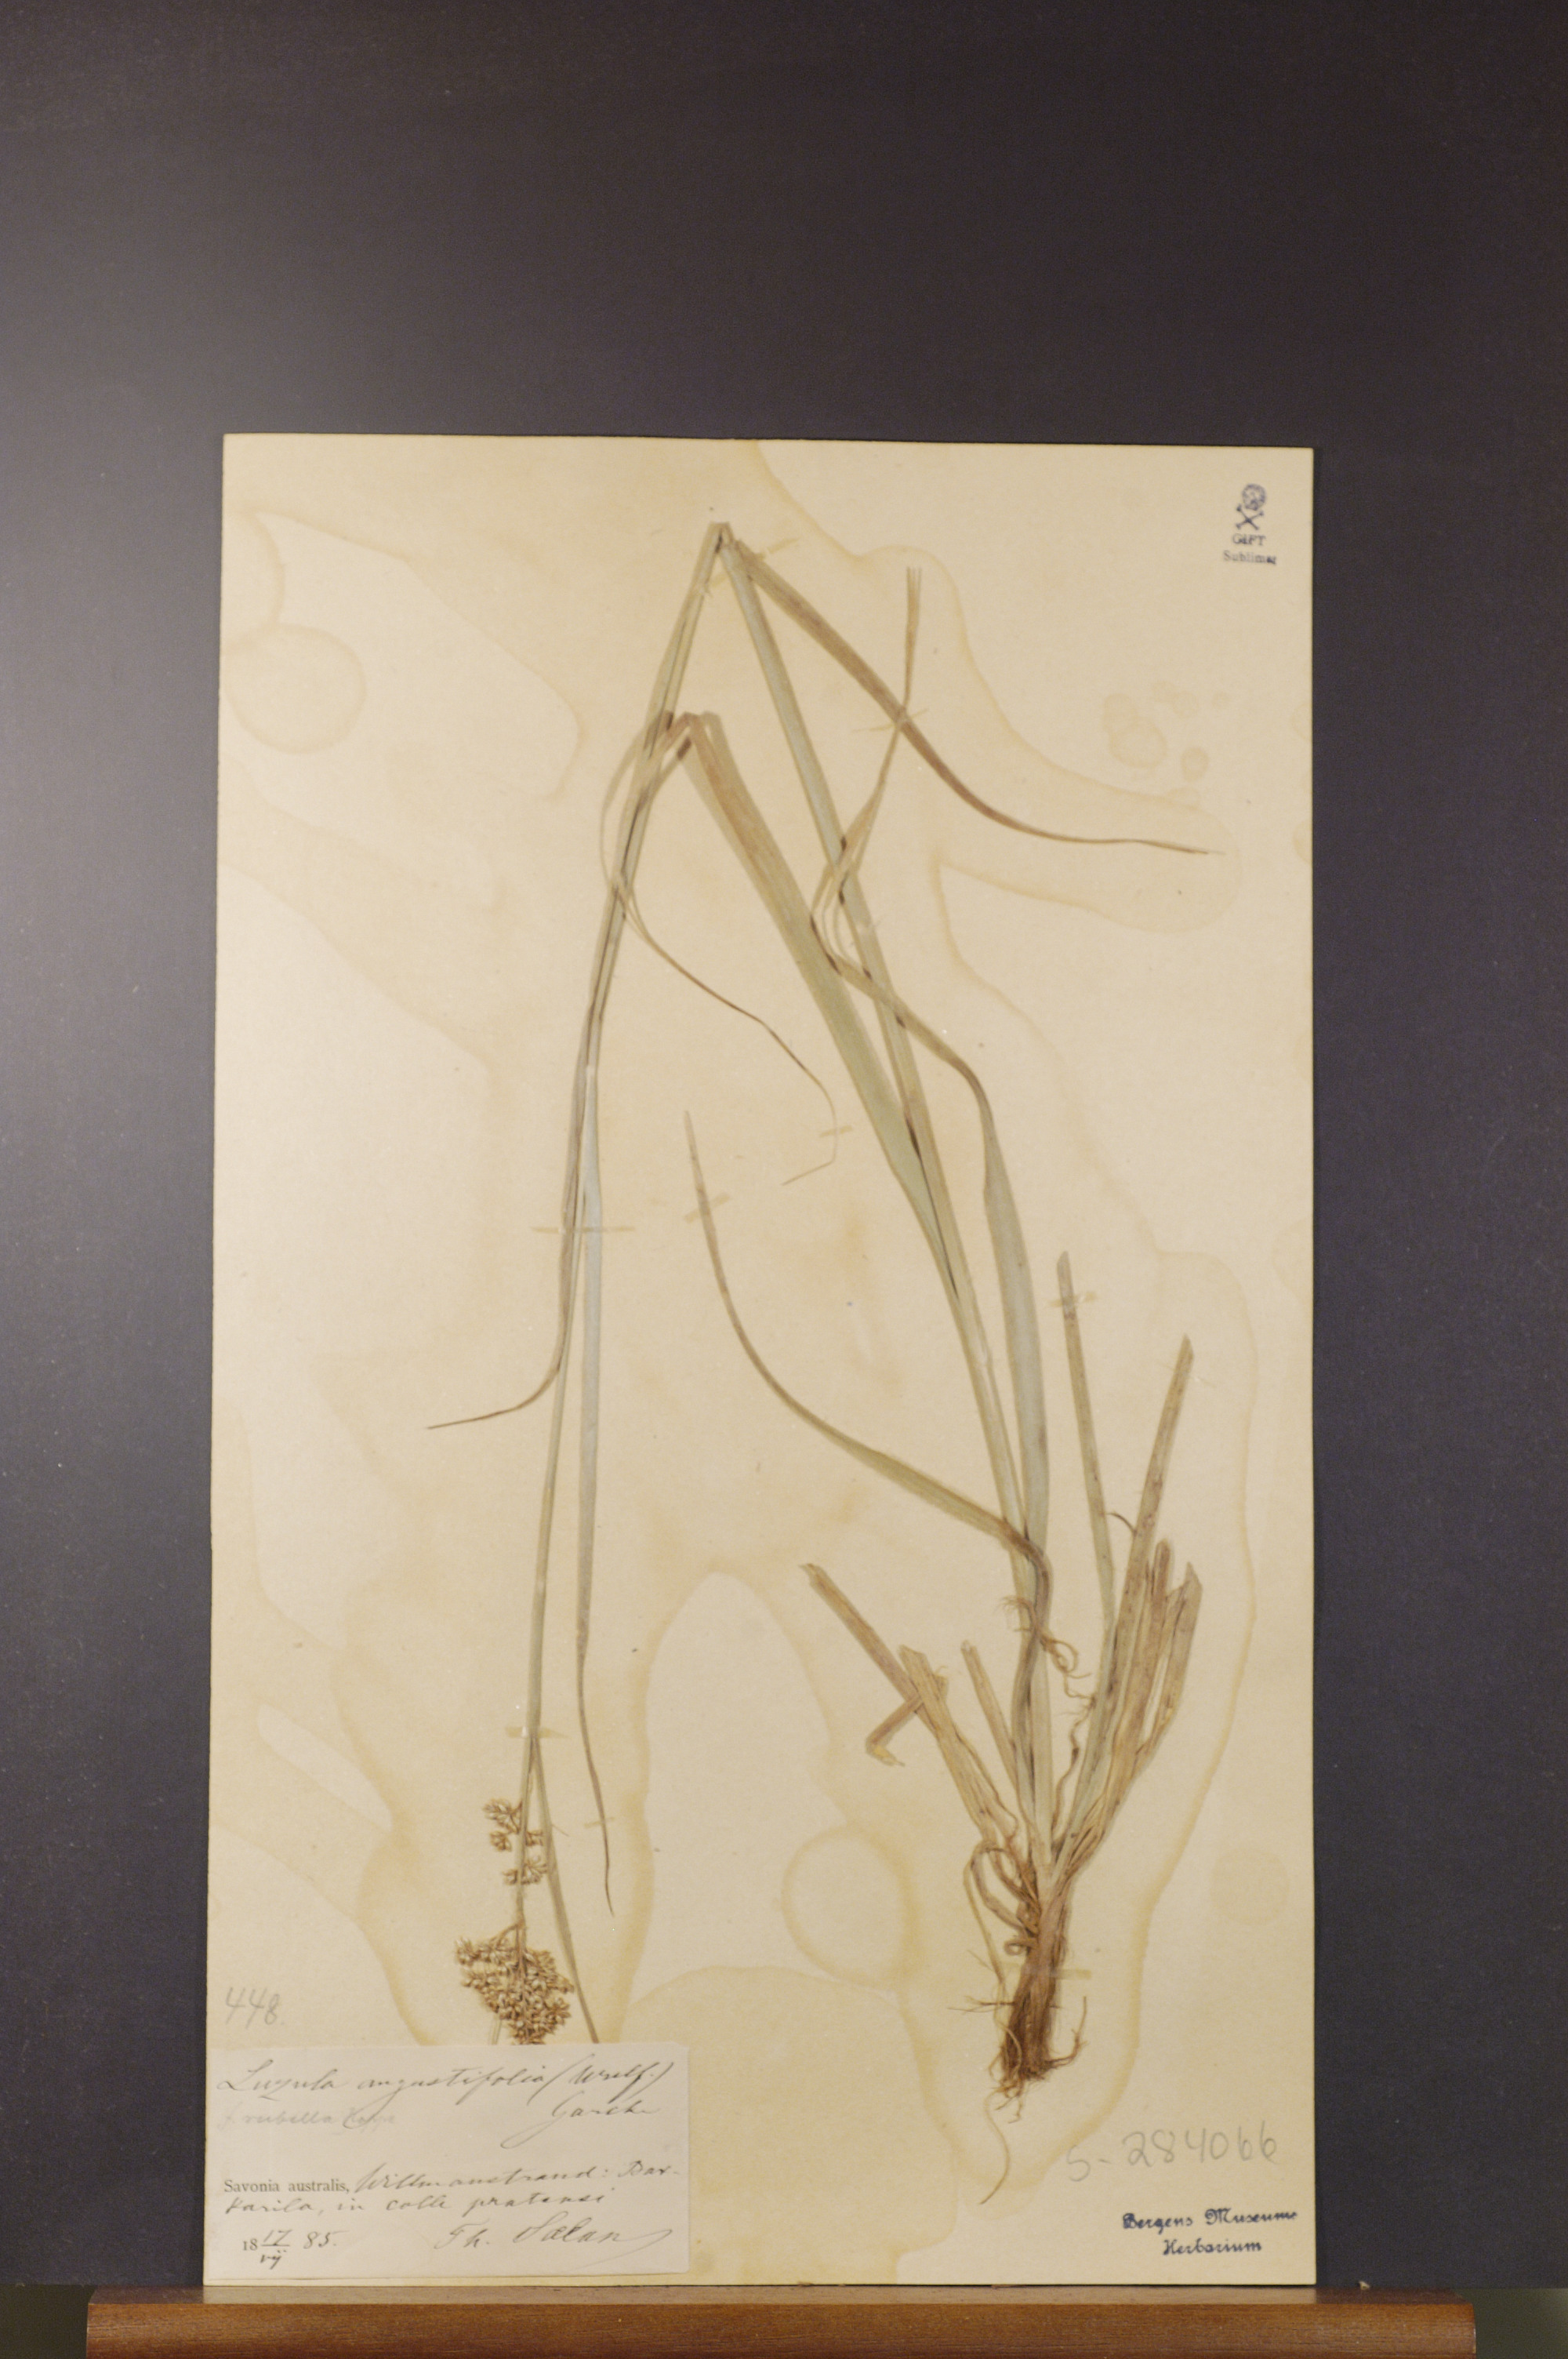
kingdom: Plantae
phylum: Tracheophyta
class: Liliopsida
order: Poales
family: Juncaceae
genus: Luzula
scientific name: Luzula luzuloides
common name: White wood-rush
